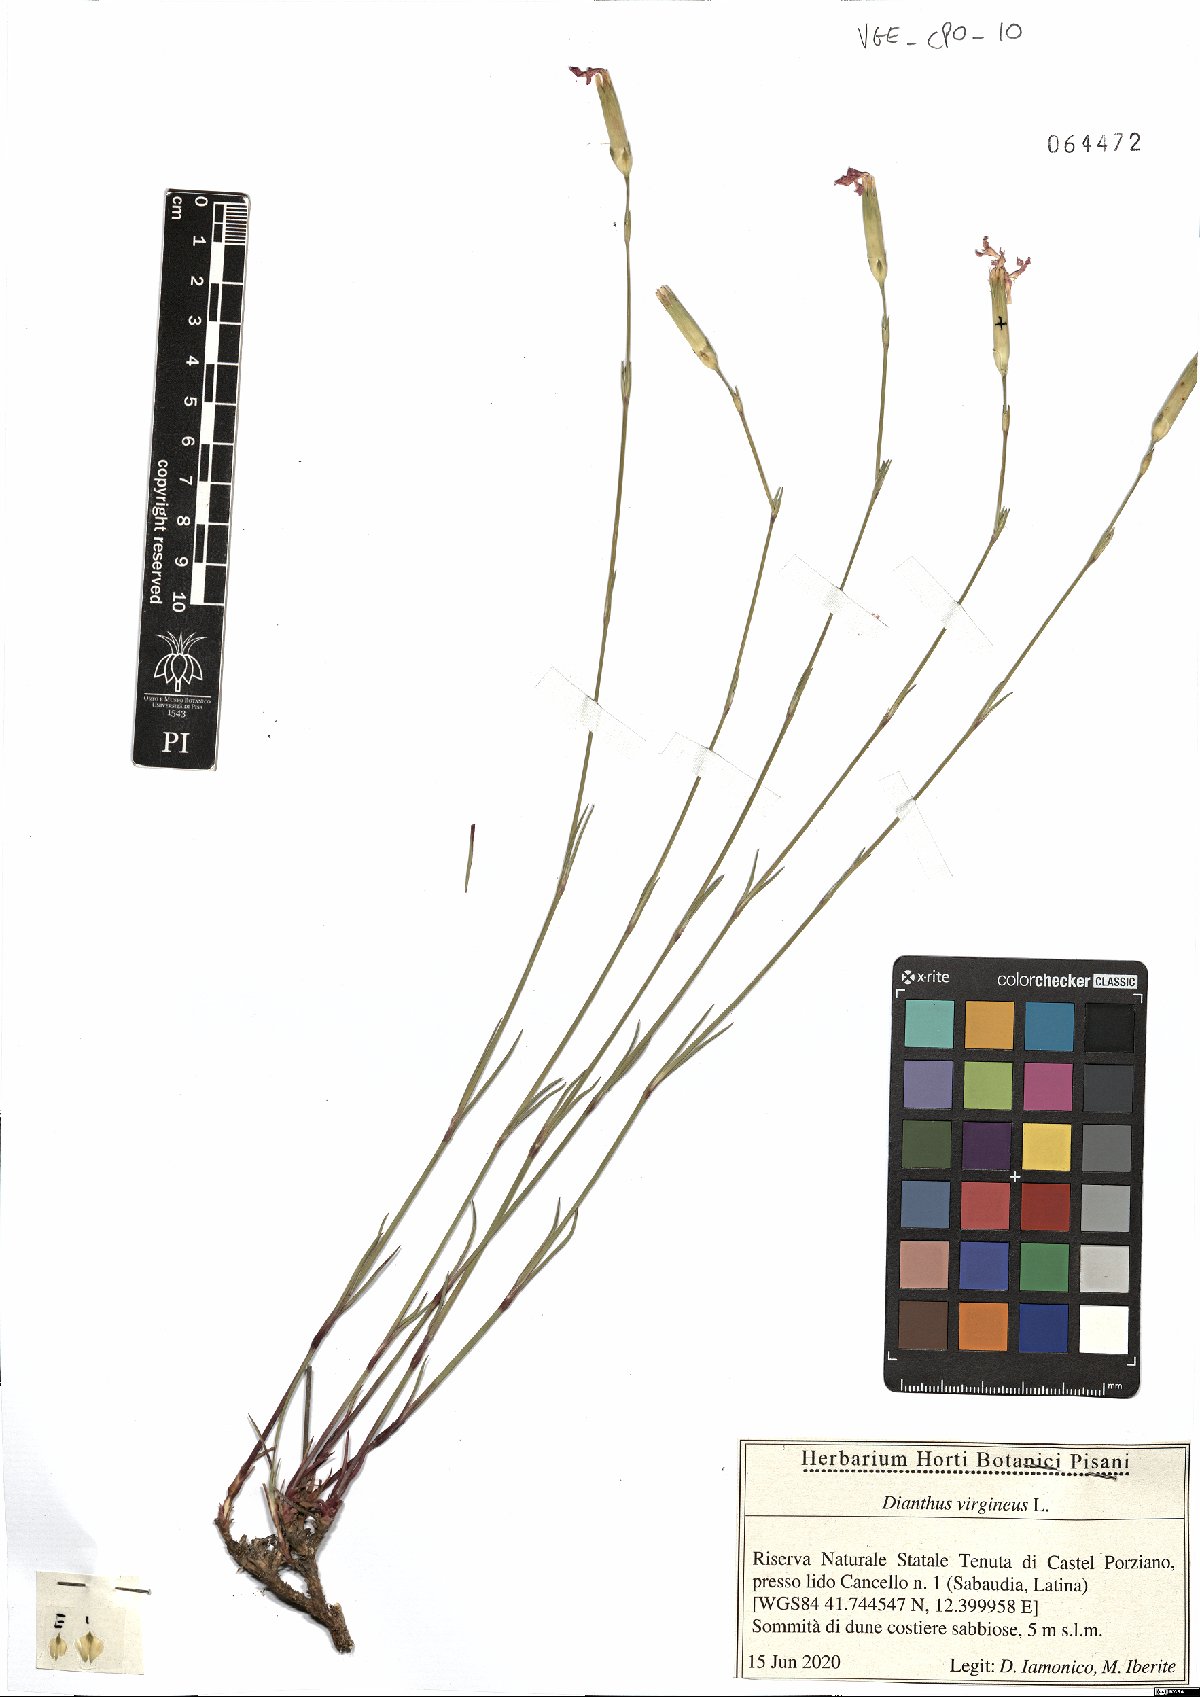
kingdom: Plantae
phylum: Tracheophyta
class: Magnoliopsida
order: Caryophyllales
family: Caryophyllaceae
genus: Dianthus
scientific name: Dianthus virgineus
